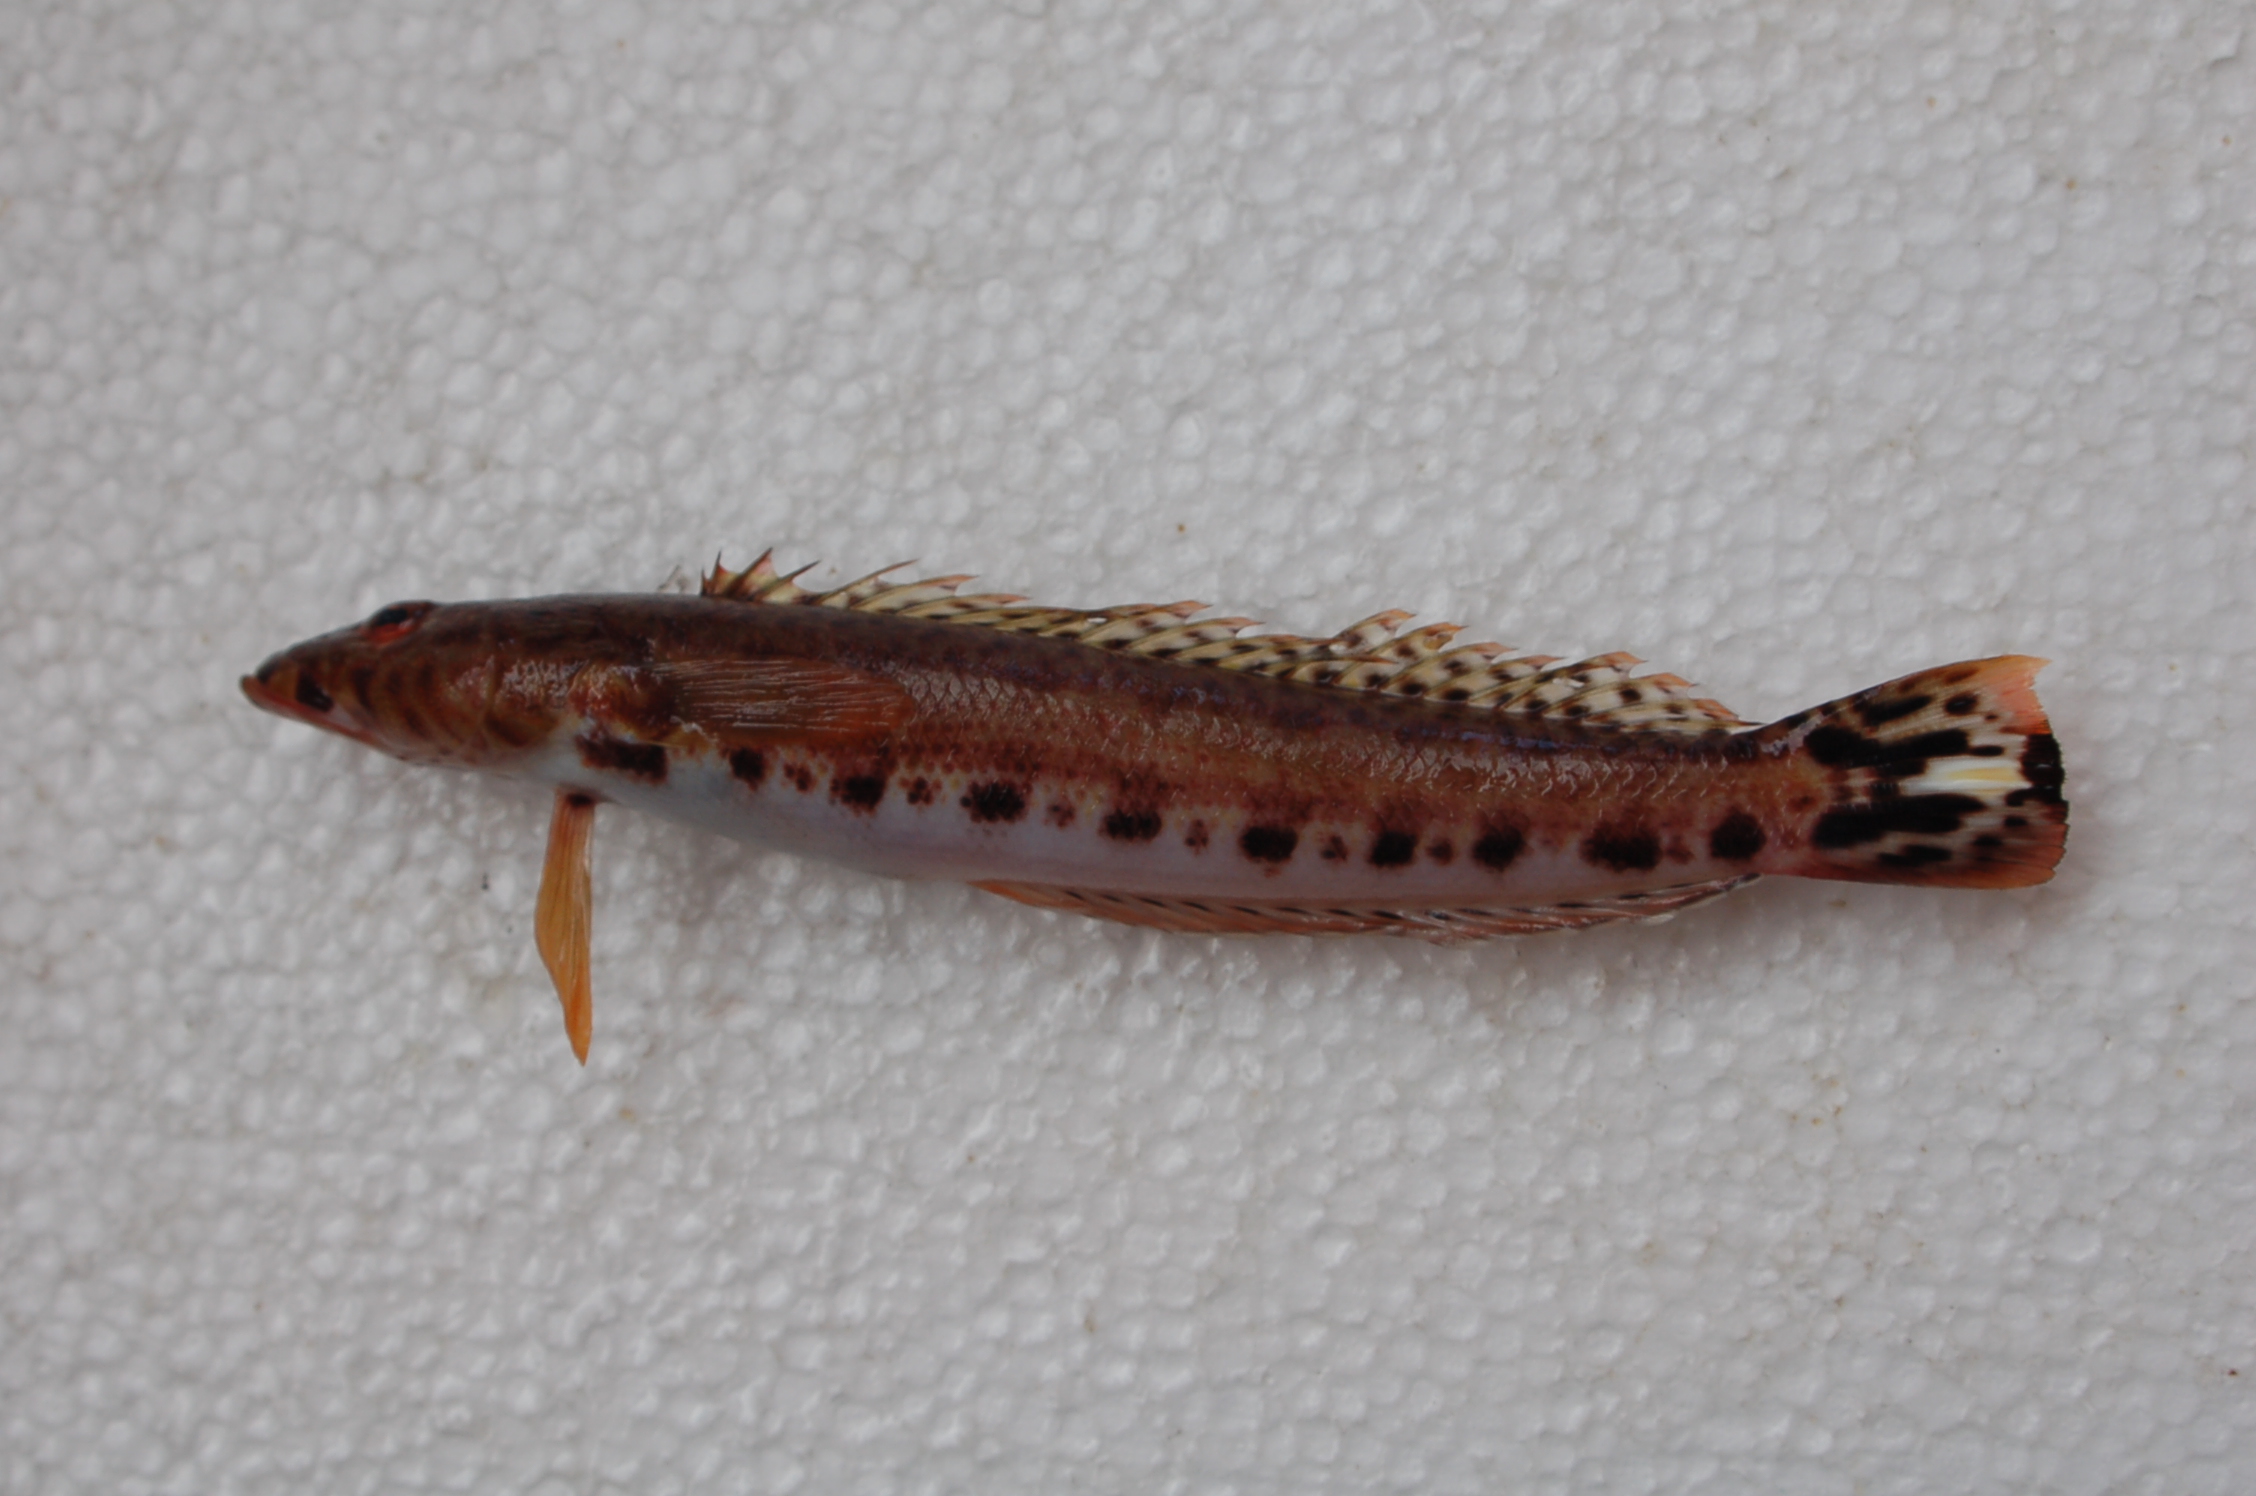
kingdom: Animalia
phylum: Chordata
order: Perciformes
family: Pinguipedidae
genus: Parapercis
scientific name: Parapercis albiventer
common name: Whitebelly sandperch
